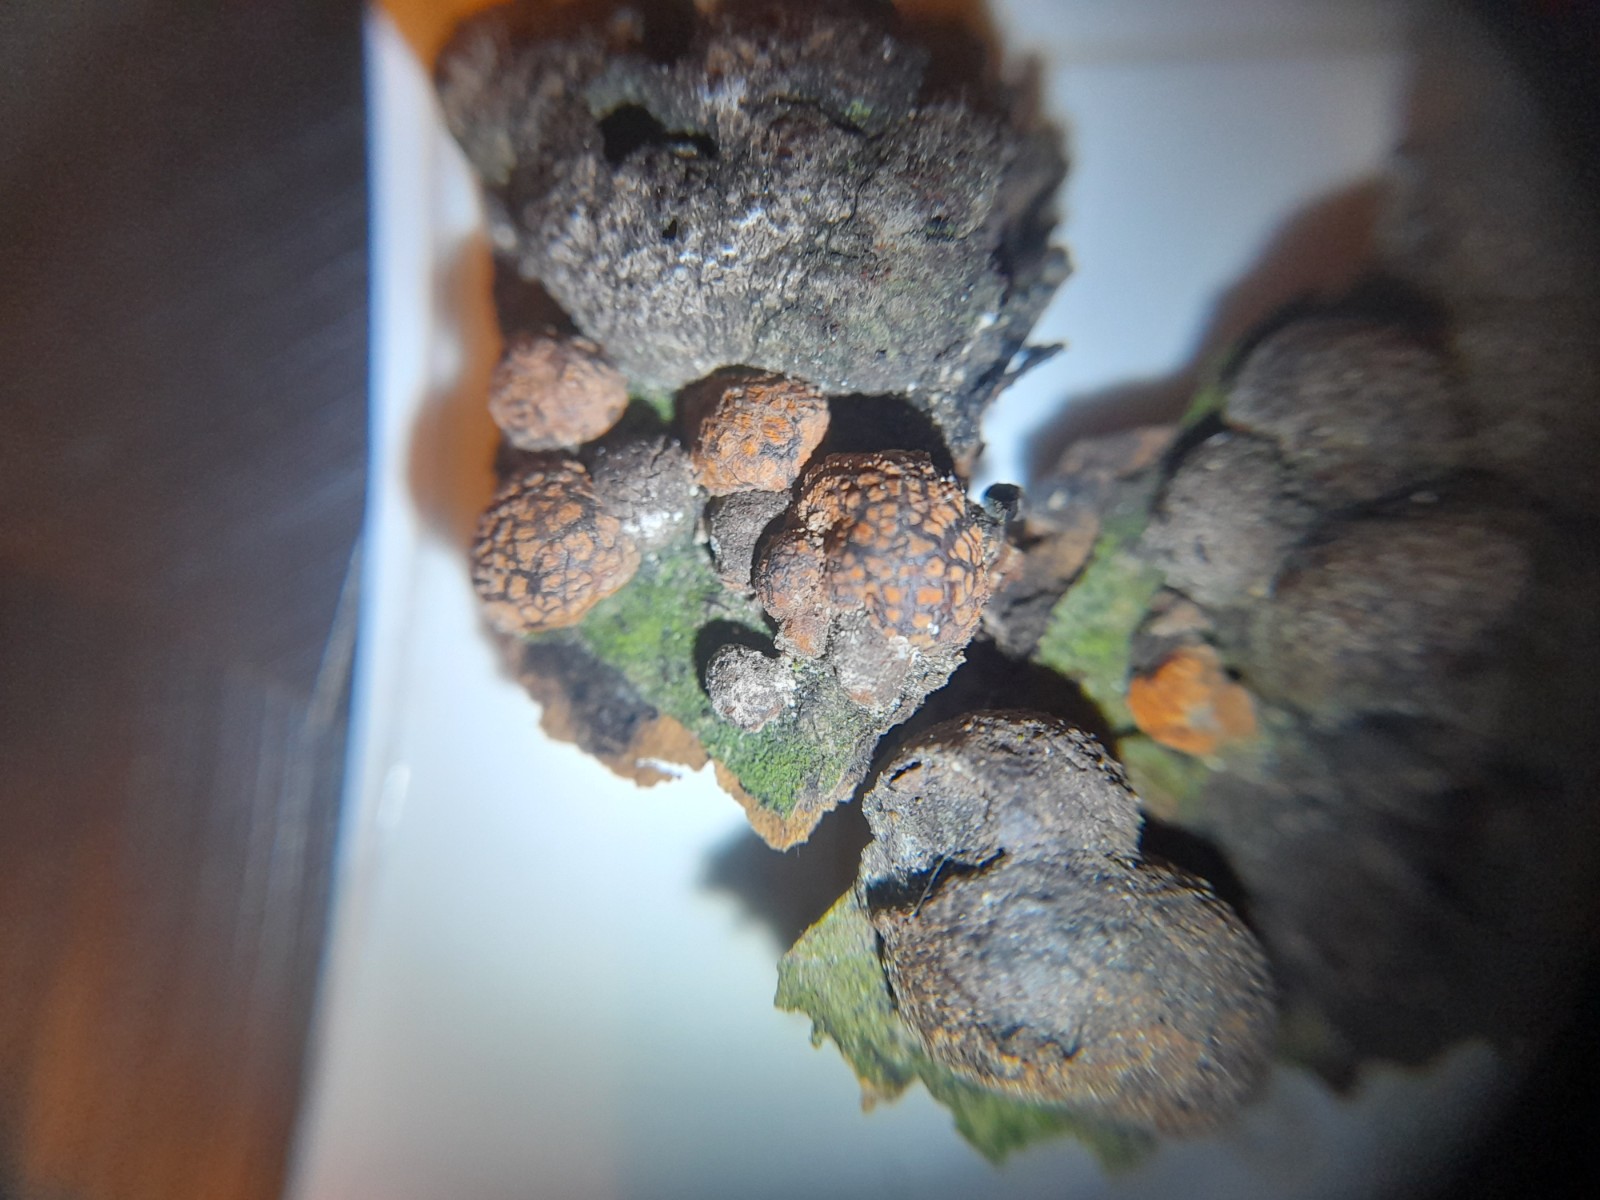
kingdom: Fungi
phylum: Ascomycota
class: Sordariomycetes
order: Xylariales
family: Hypoxylaceae
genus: Hypoxylon
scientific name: Hypoxylon fragiforme
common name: kuljordbær
